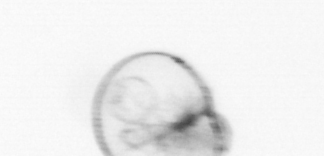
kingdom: Chromista
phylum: Myzozoa
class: Dinophyceae
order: Noctilucales
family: Noctilucaceae
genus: Noctiluca
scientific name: Noctiluca scintillans
